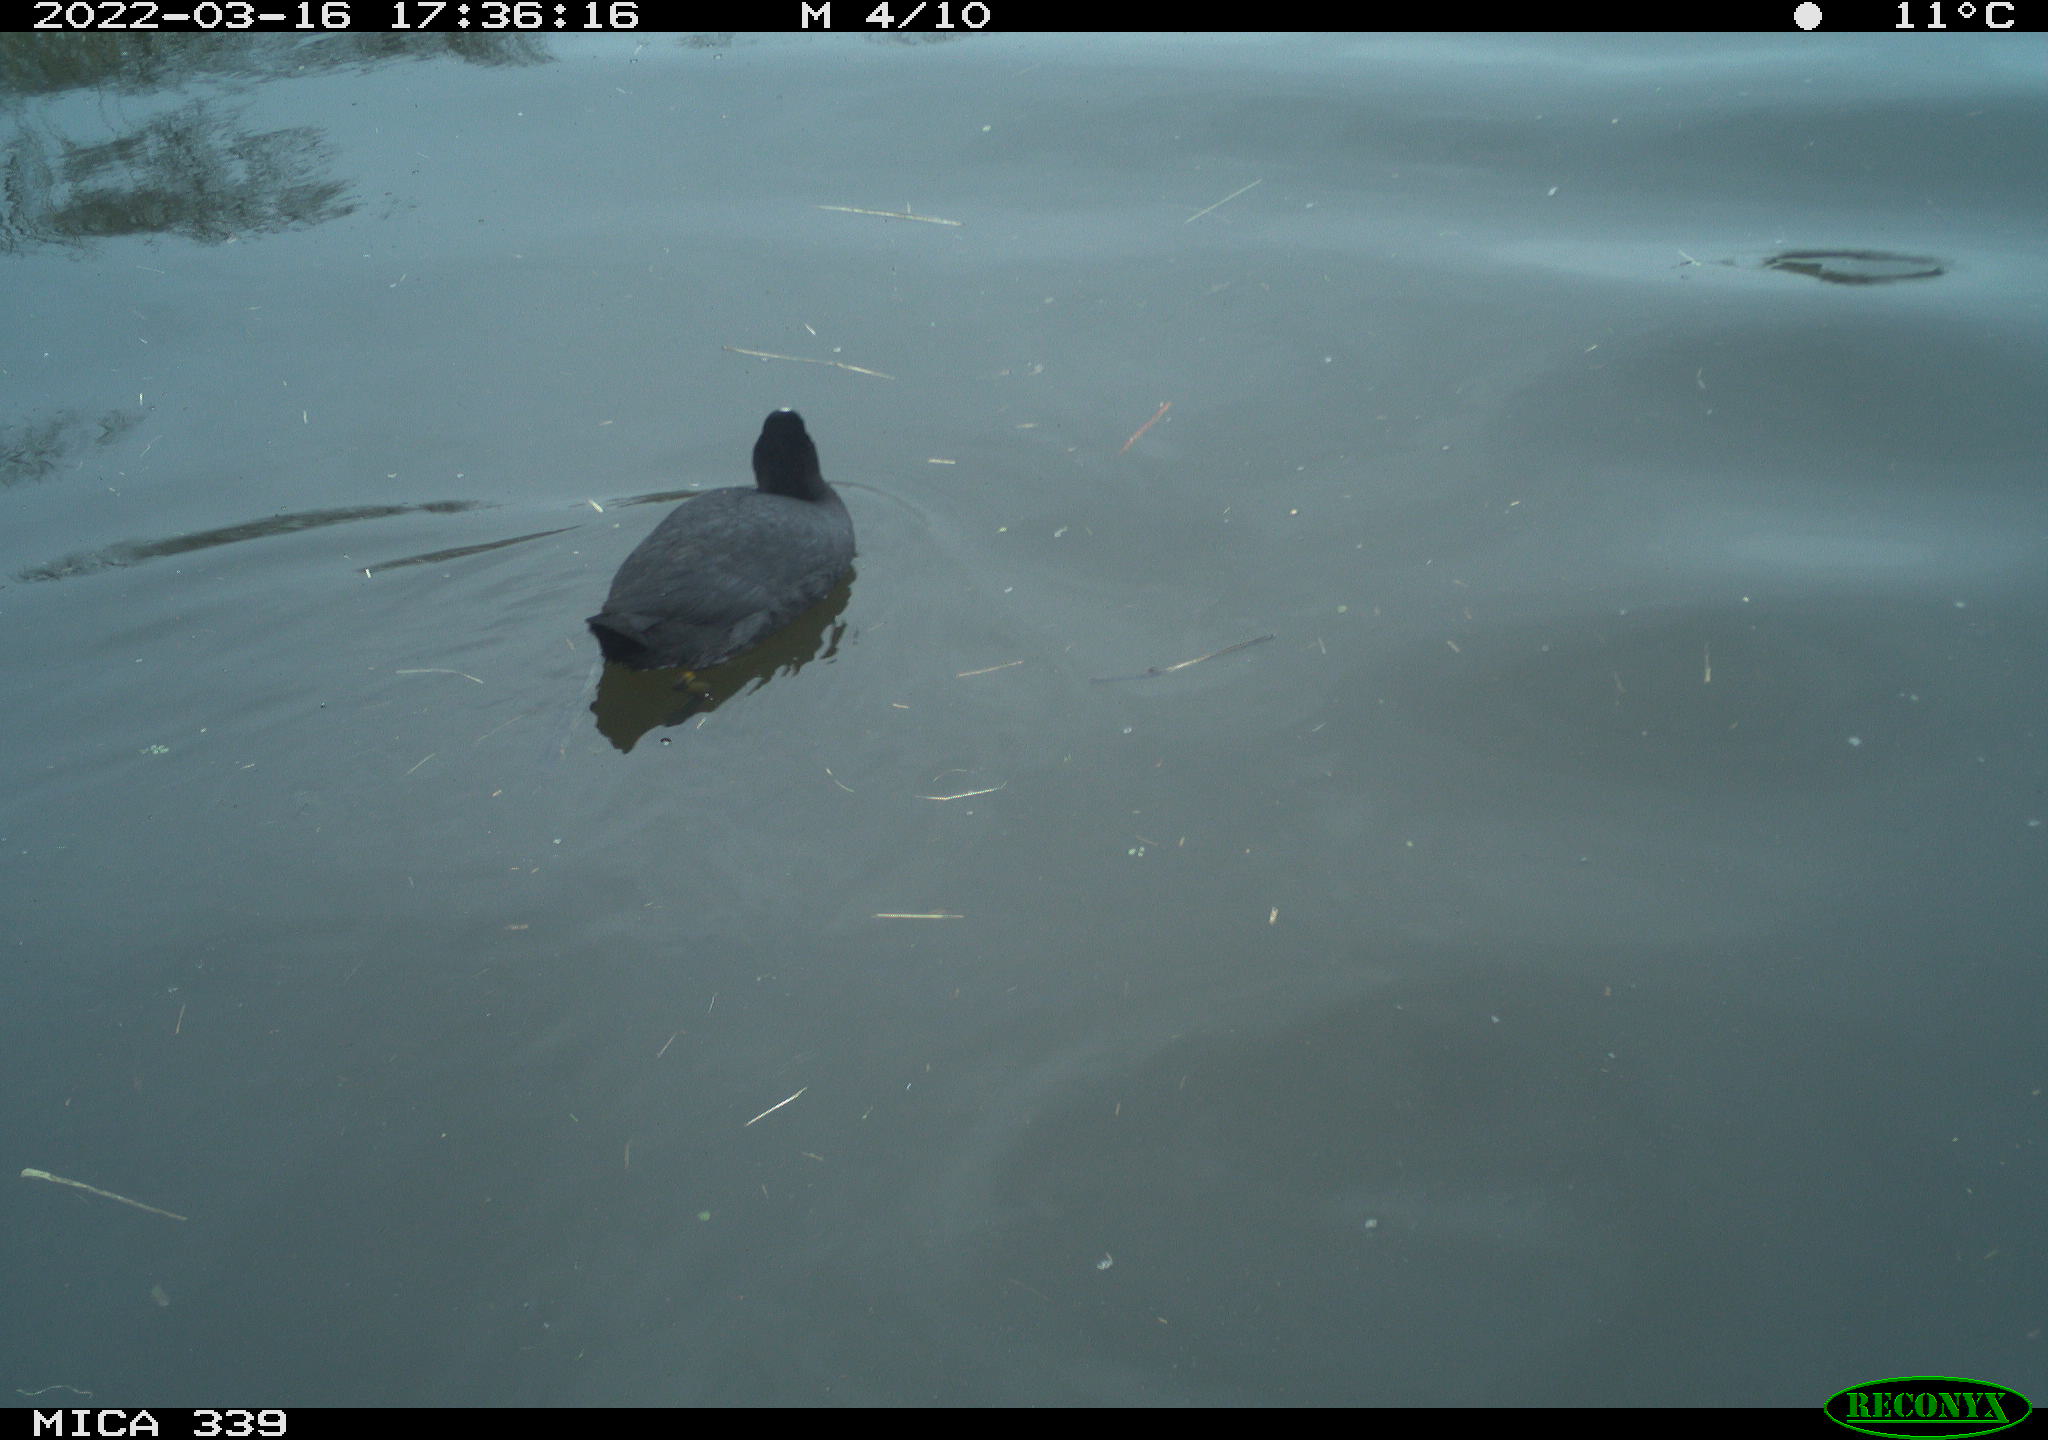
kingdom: Animalia
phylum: Chordata
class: Aves
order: Gruiformes
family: Rallidae
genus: Fulica
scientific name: Fulica atra
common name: Eurasian coot
